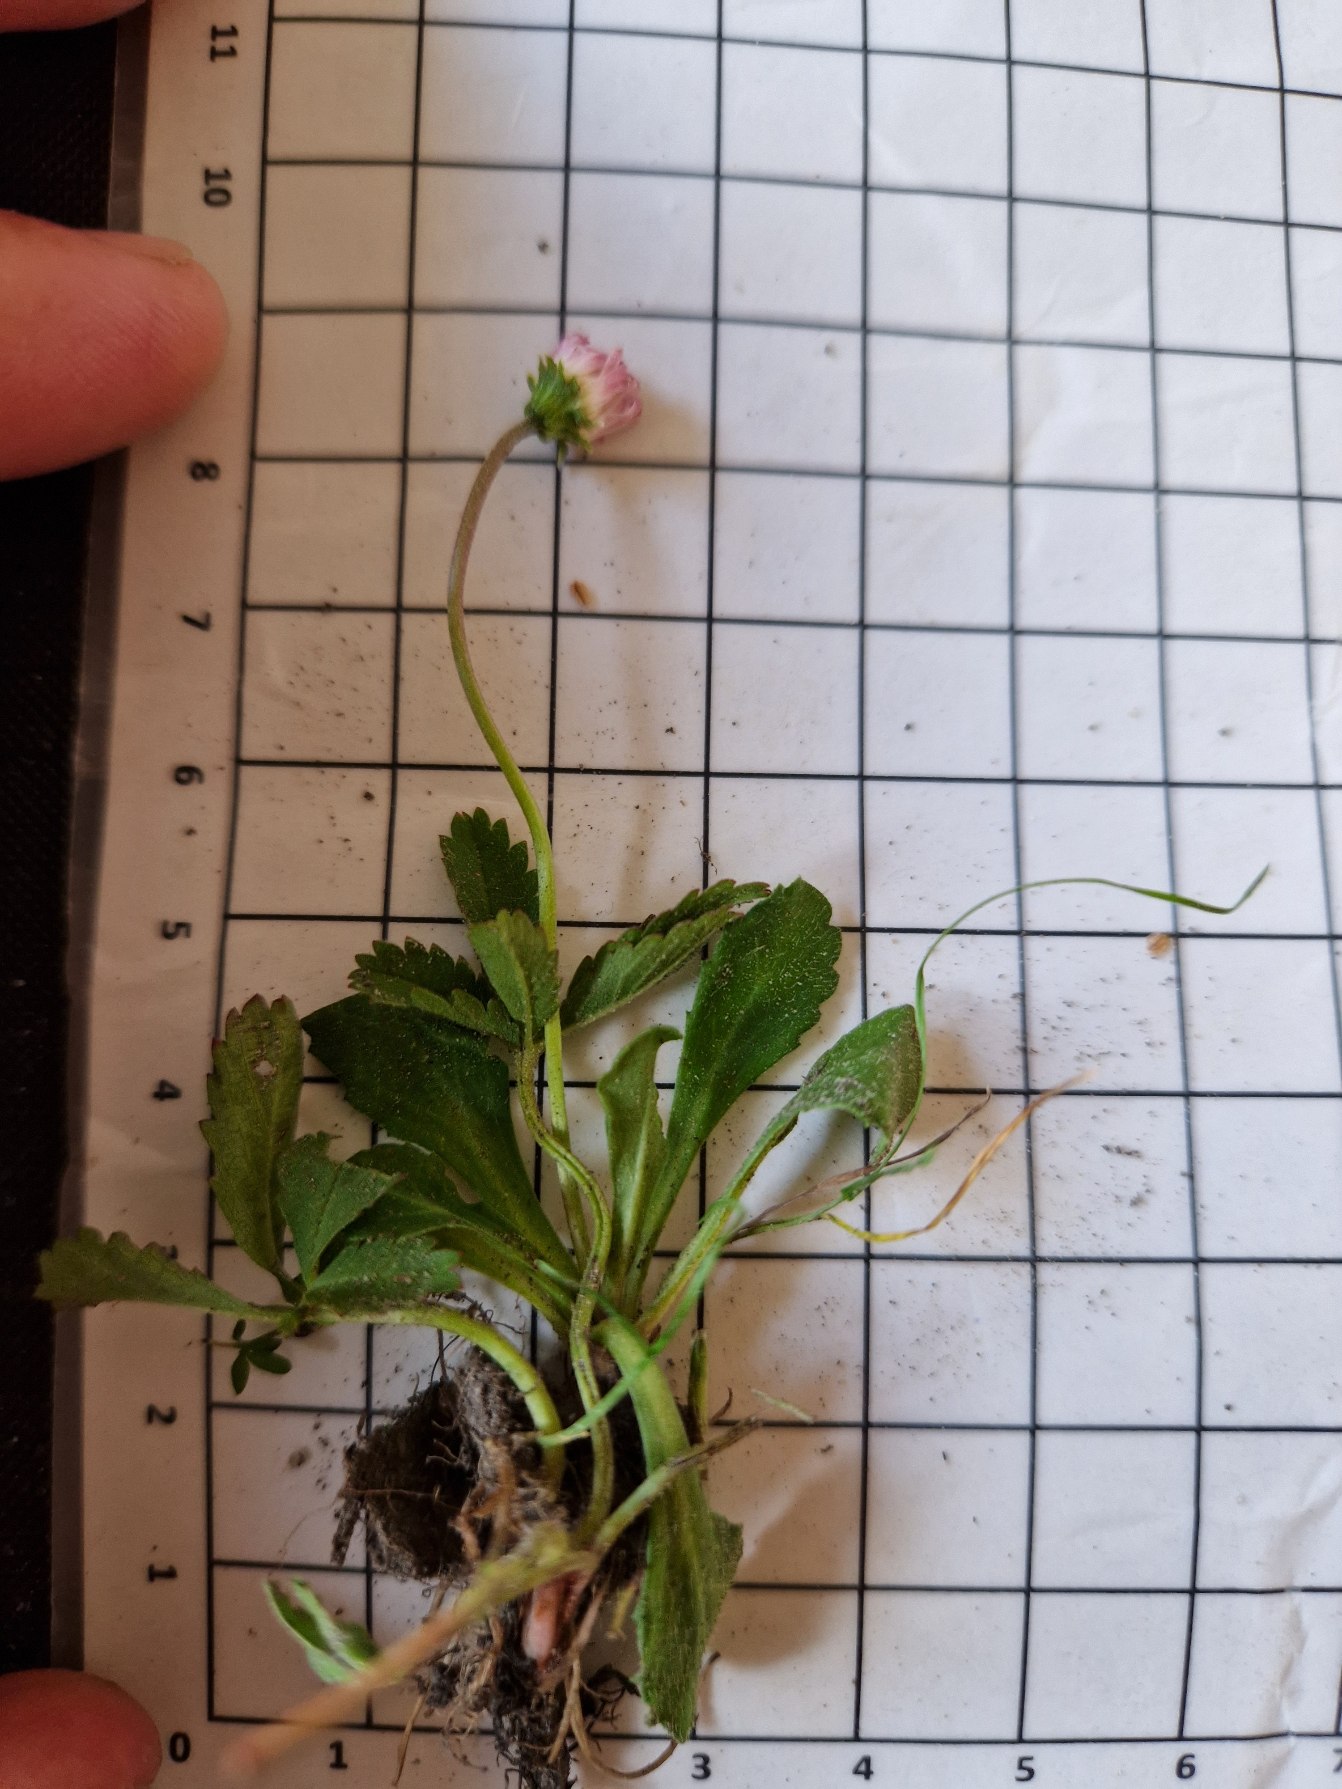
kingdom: Plantae
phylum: Tracheophyta
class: Magnoliopsida
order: Asterales
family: Asteraceae
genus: Bellis
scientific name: Bellis perennis
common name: Tusindfryd
